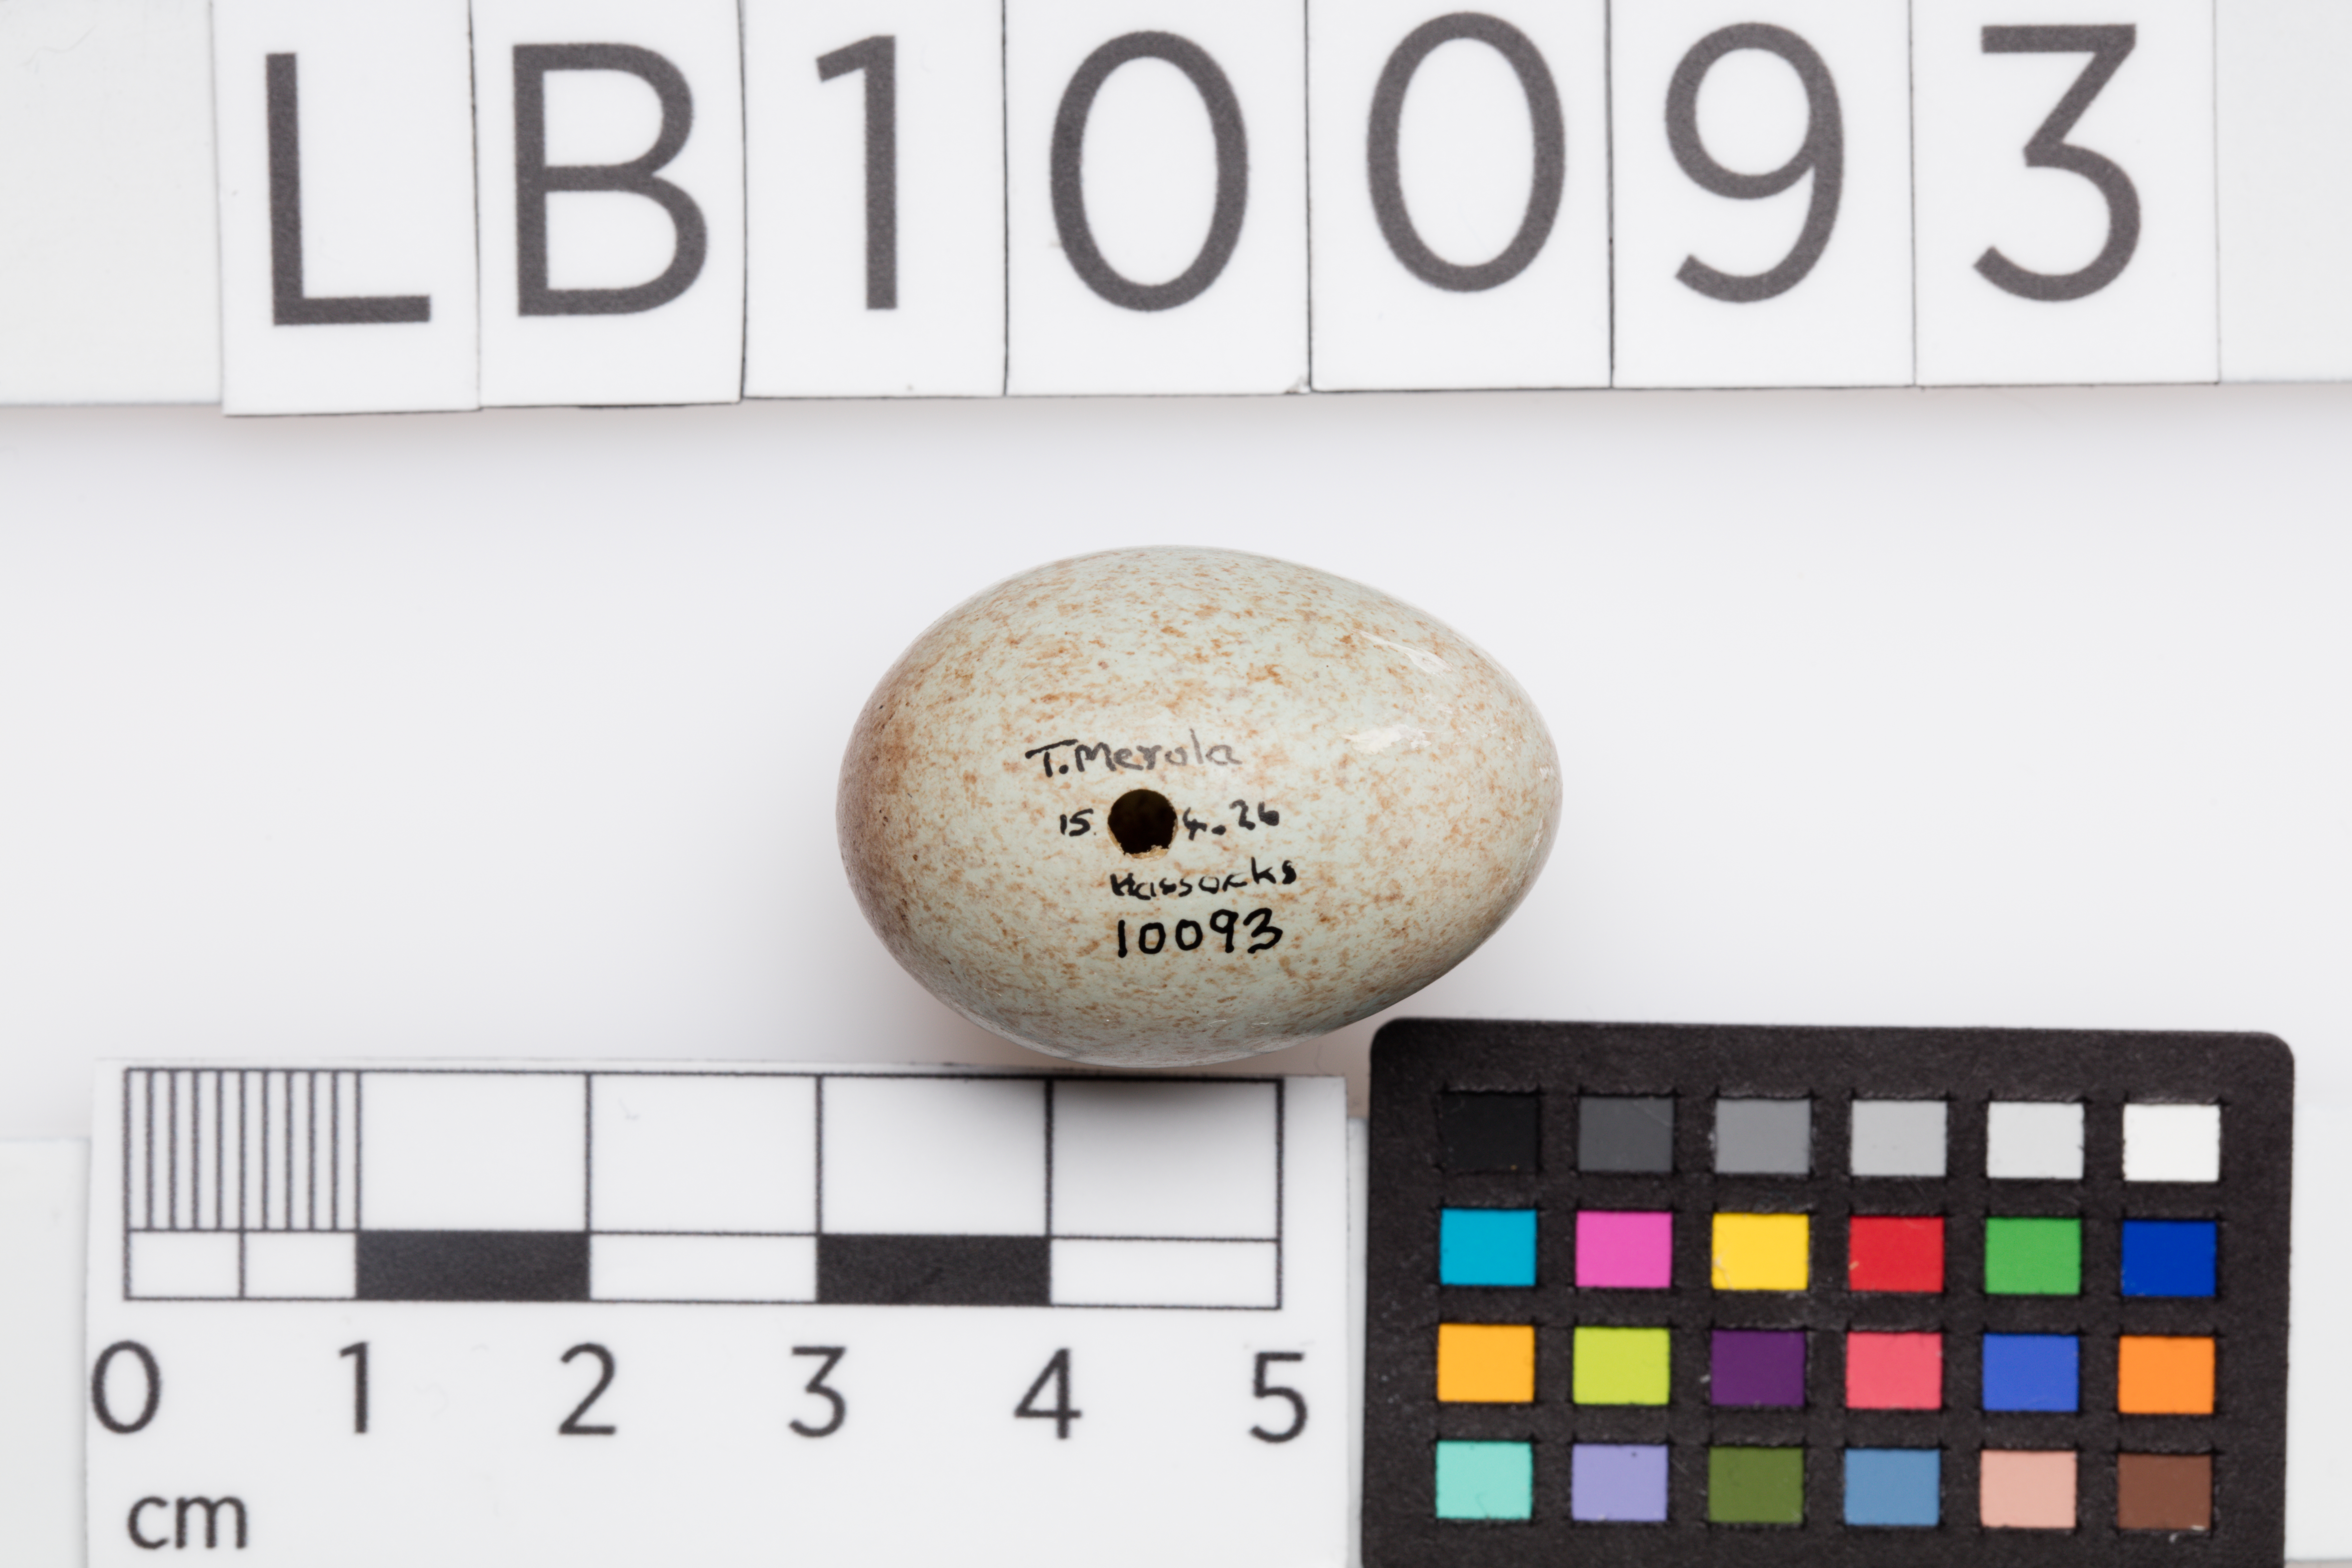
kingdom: Animalia
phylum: Chordata
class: Aves
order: Passeriformes
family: Turdidae
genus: Turdus
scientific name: Turdus merula
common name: Common blackbird
